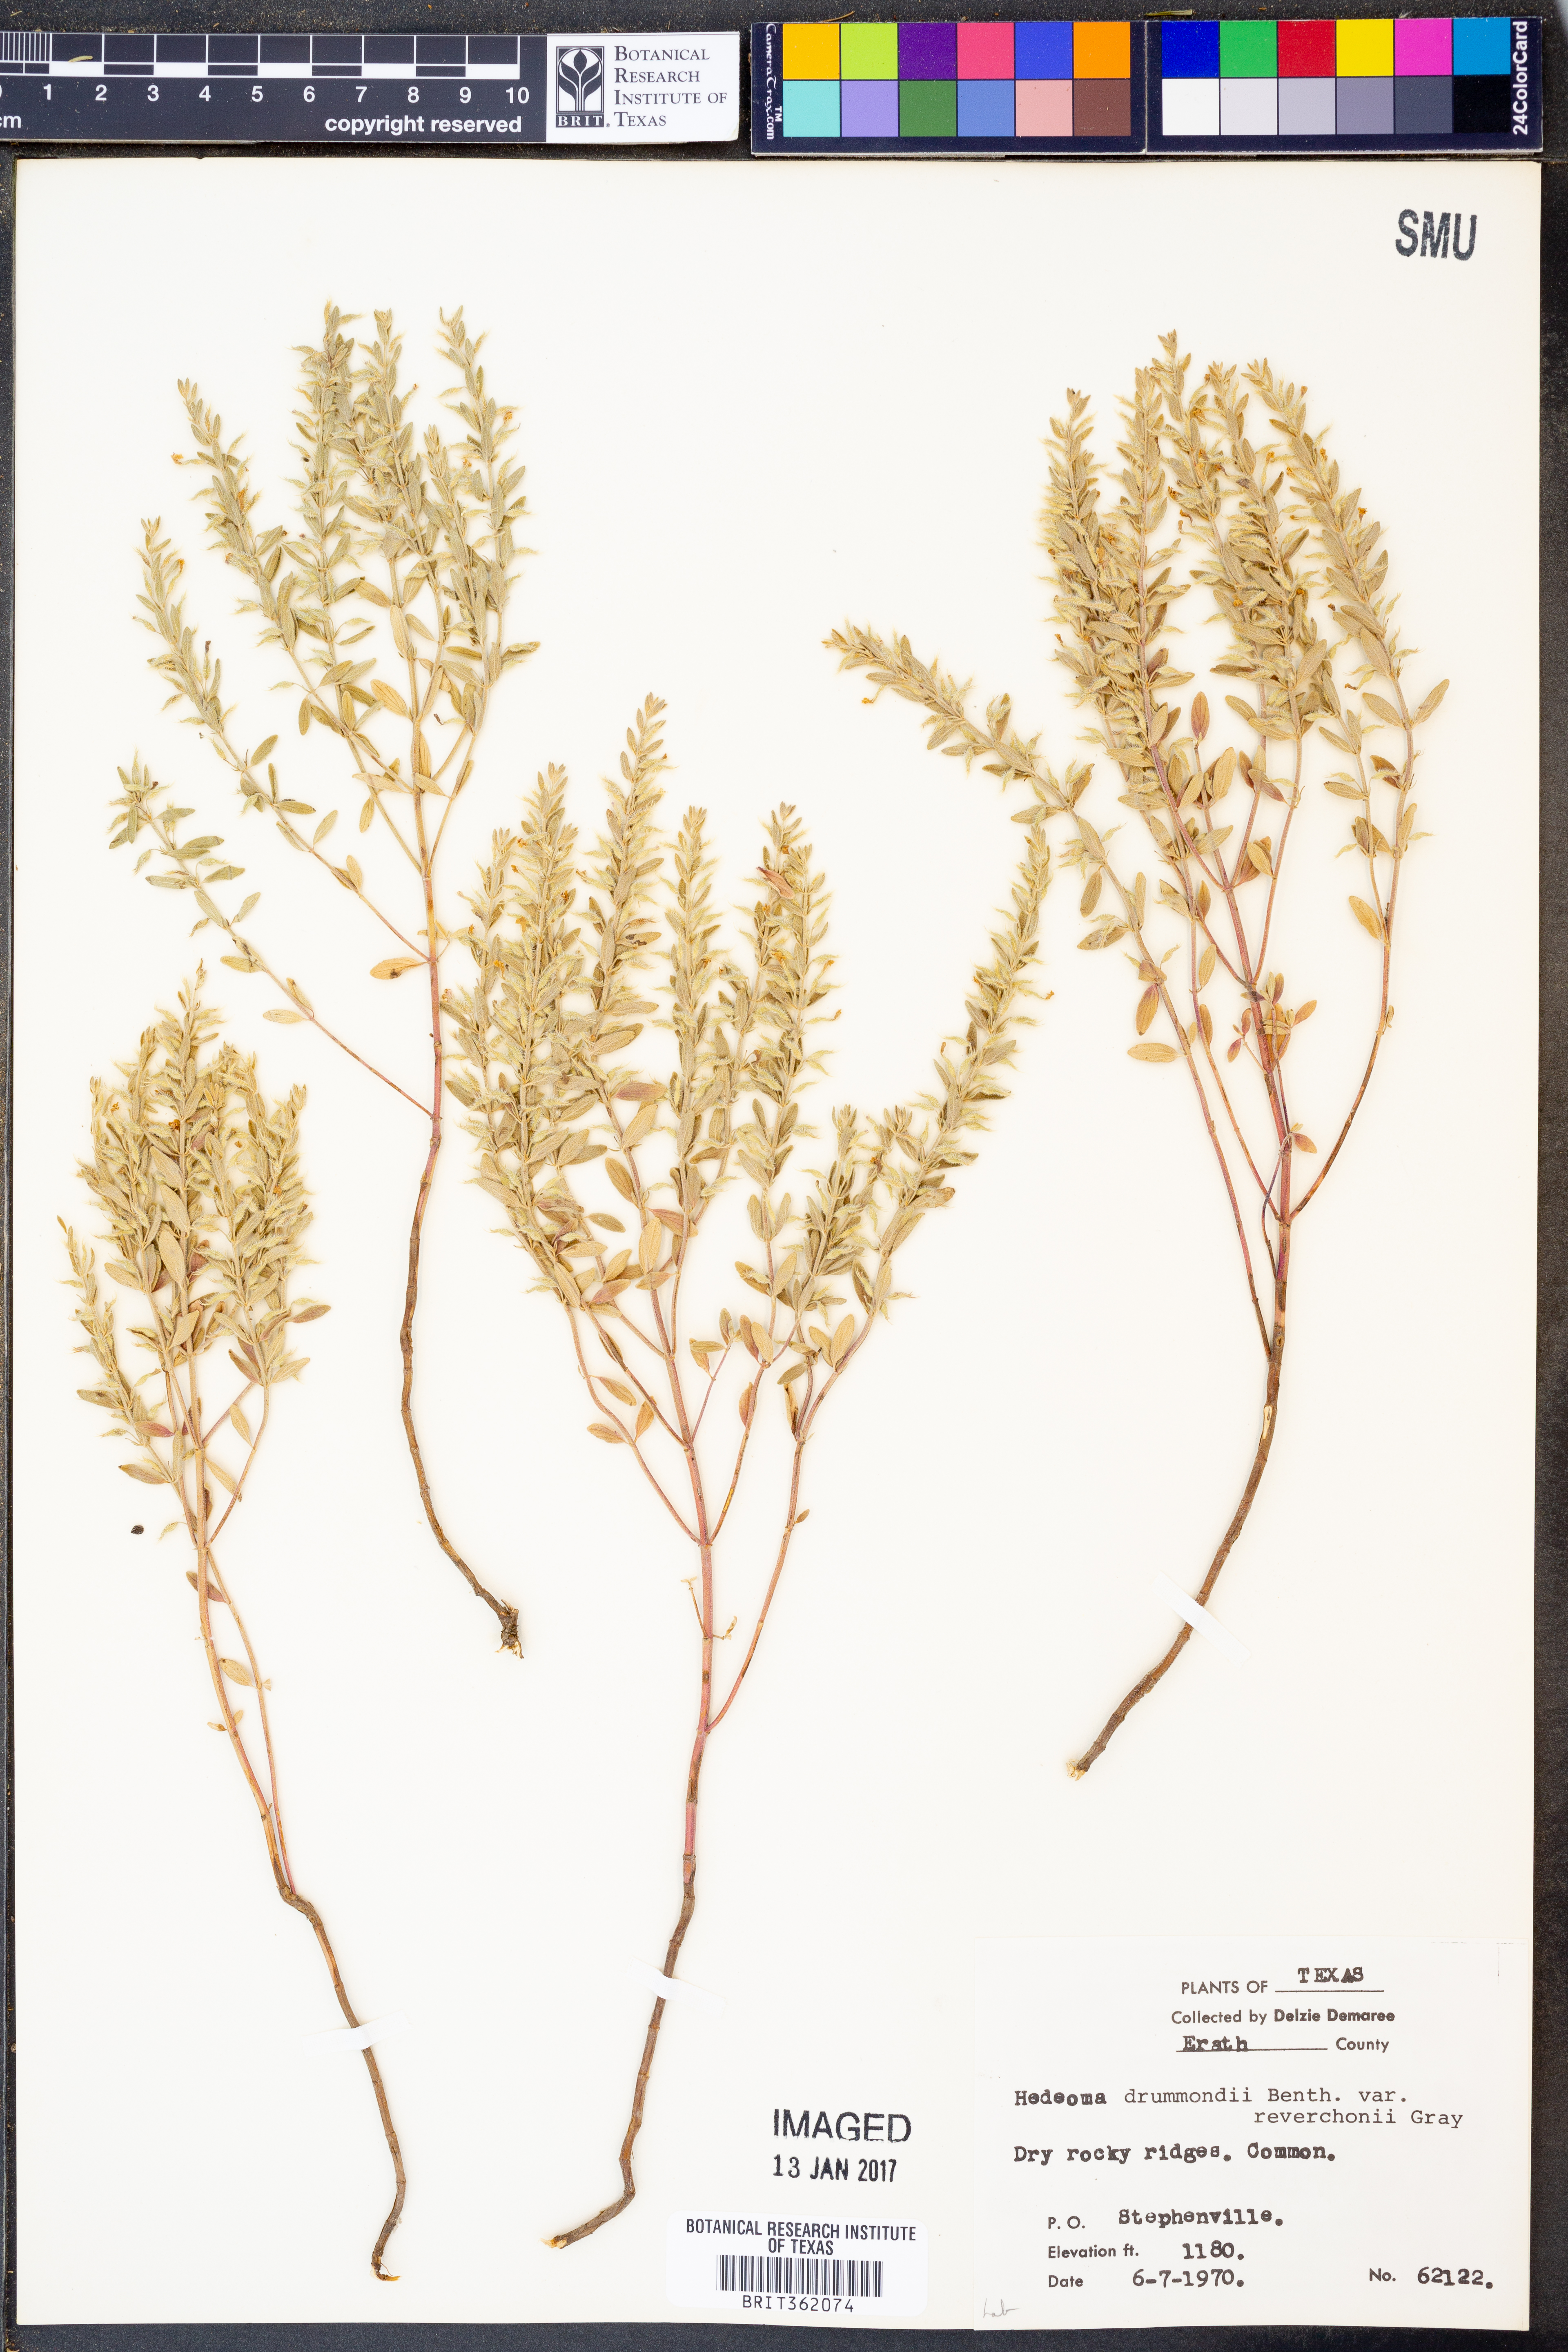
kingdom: Plantae
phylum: Tracheophyta
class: Magnoliopsida
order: Lamiales
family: Lamiaceae
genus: Hedeoma
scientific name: Hedeoma reverchonii
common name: Reverchon's false penny-royal
